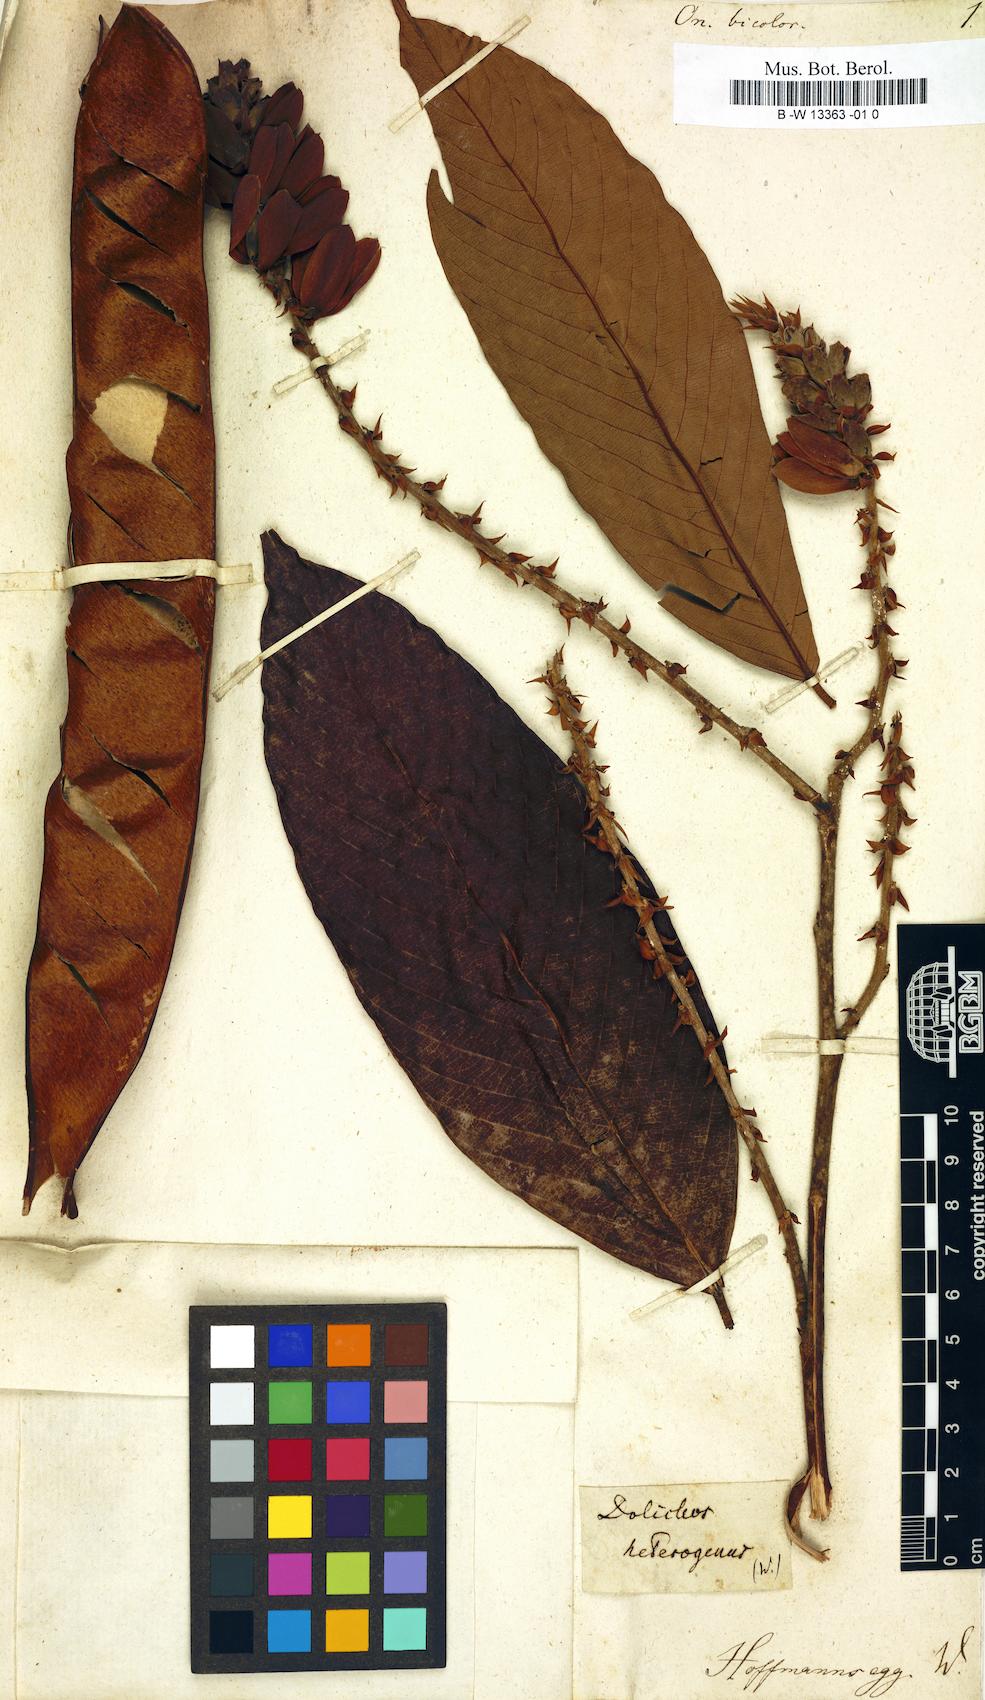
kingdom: Plantae
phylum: Tracheophyta
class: Magnoliopsida
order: Fabales
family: Fabaceae
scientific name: Fabaceae
